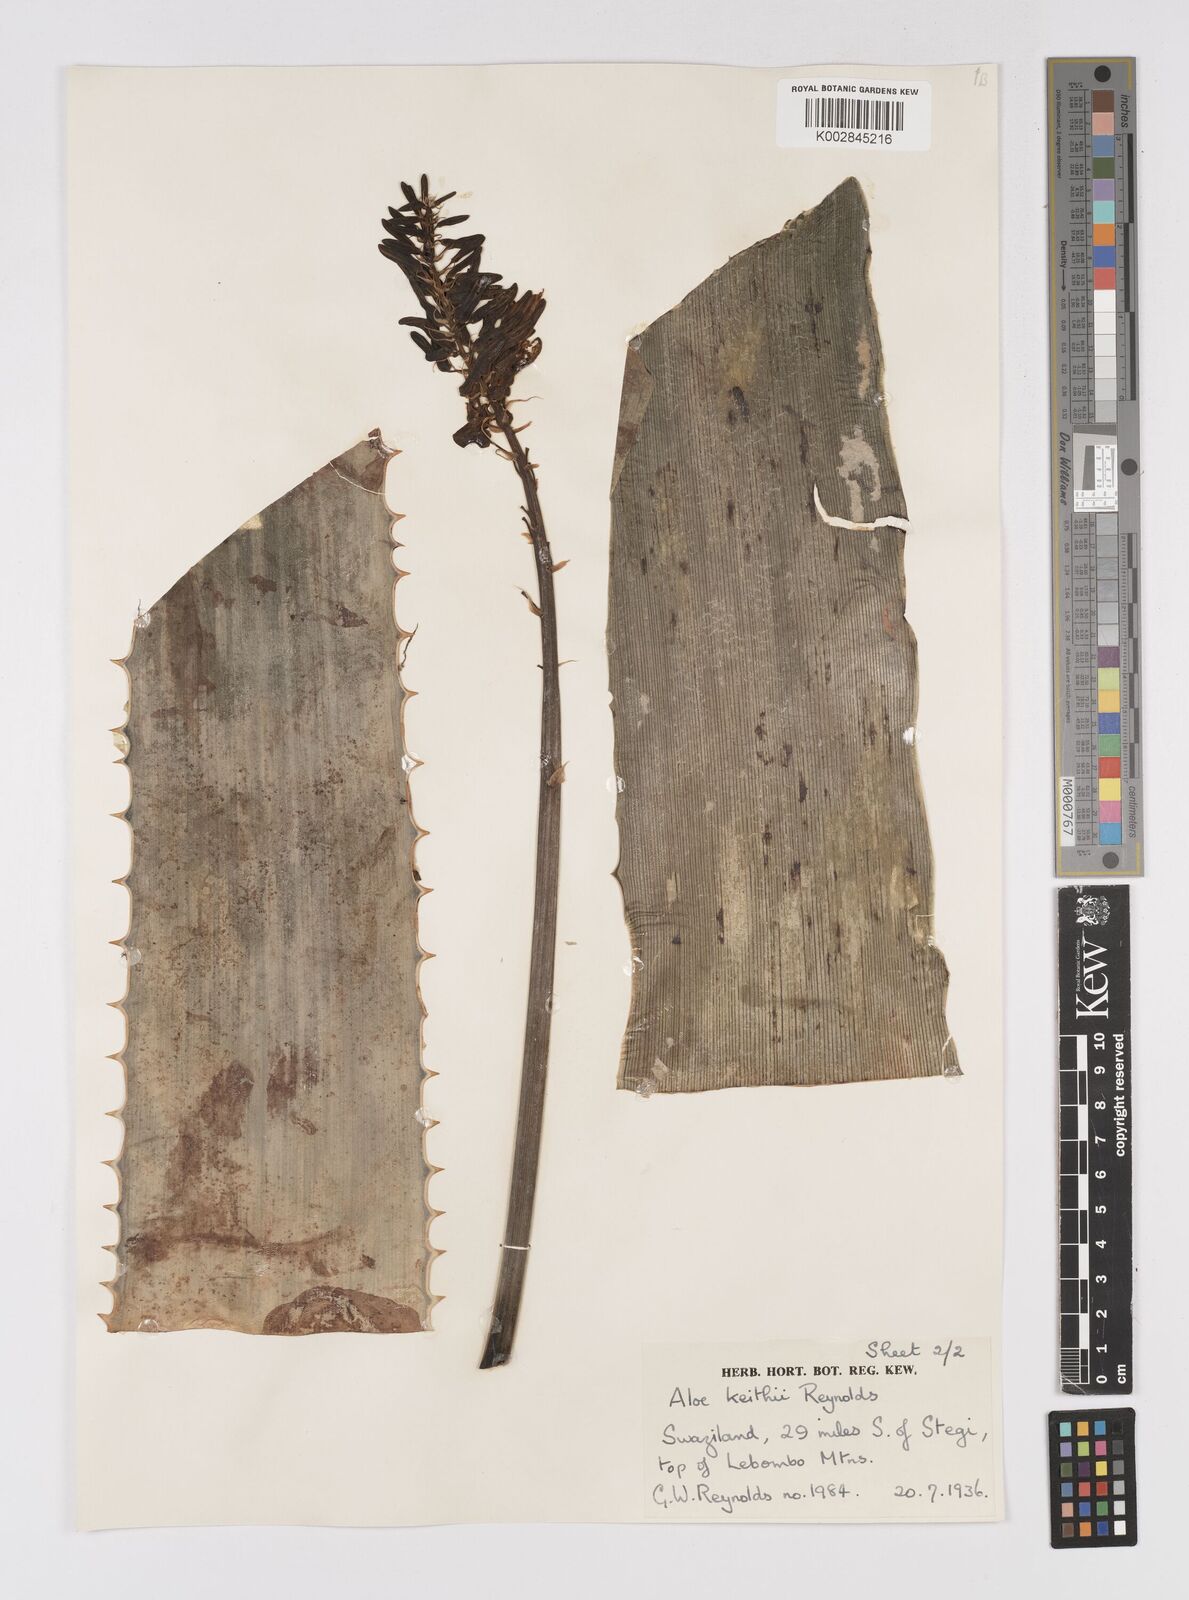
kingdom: Plantae
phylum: Tracheophyta
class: Liliopsida
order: Asparagales
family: Asphodelaceae
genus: Aloe
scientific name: Aloe parvibracteata
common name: Lowveld spotted aloe
